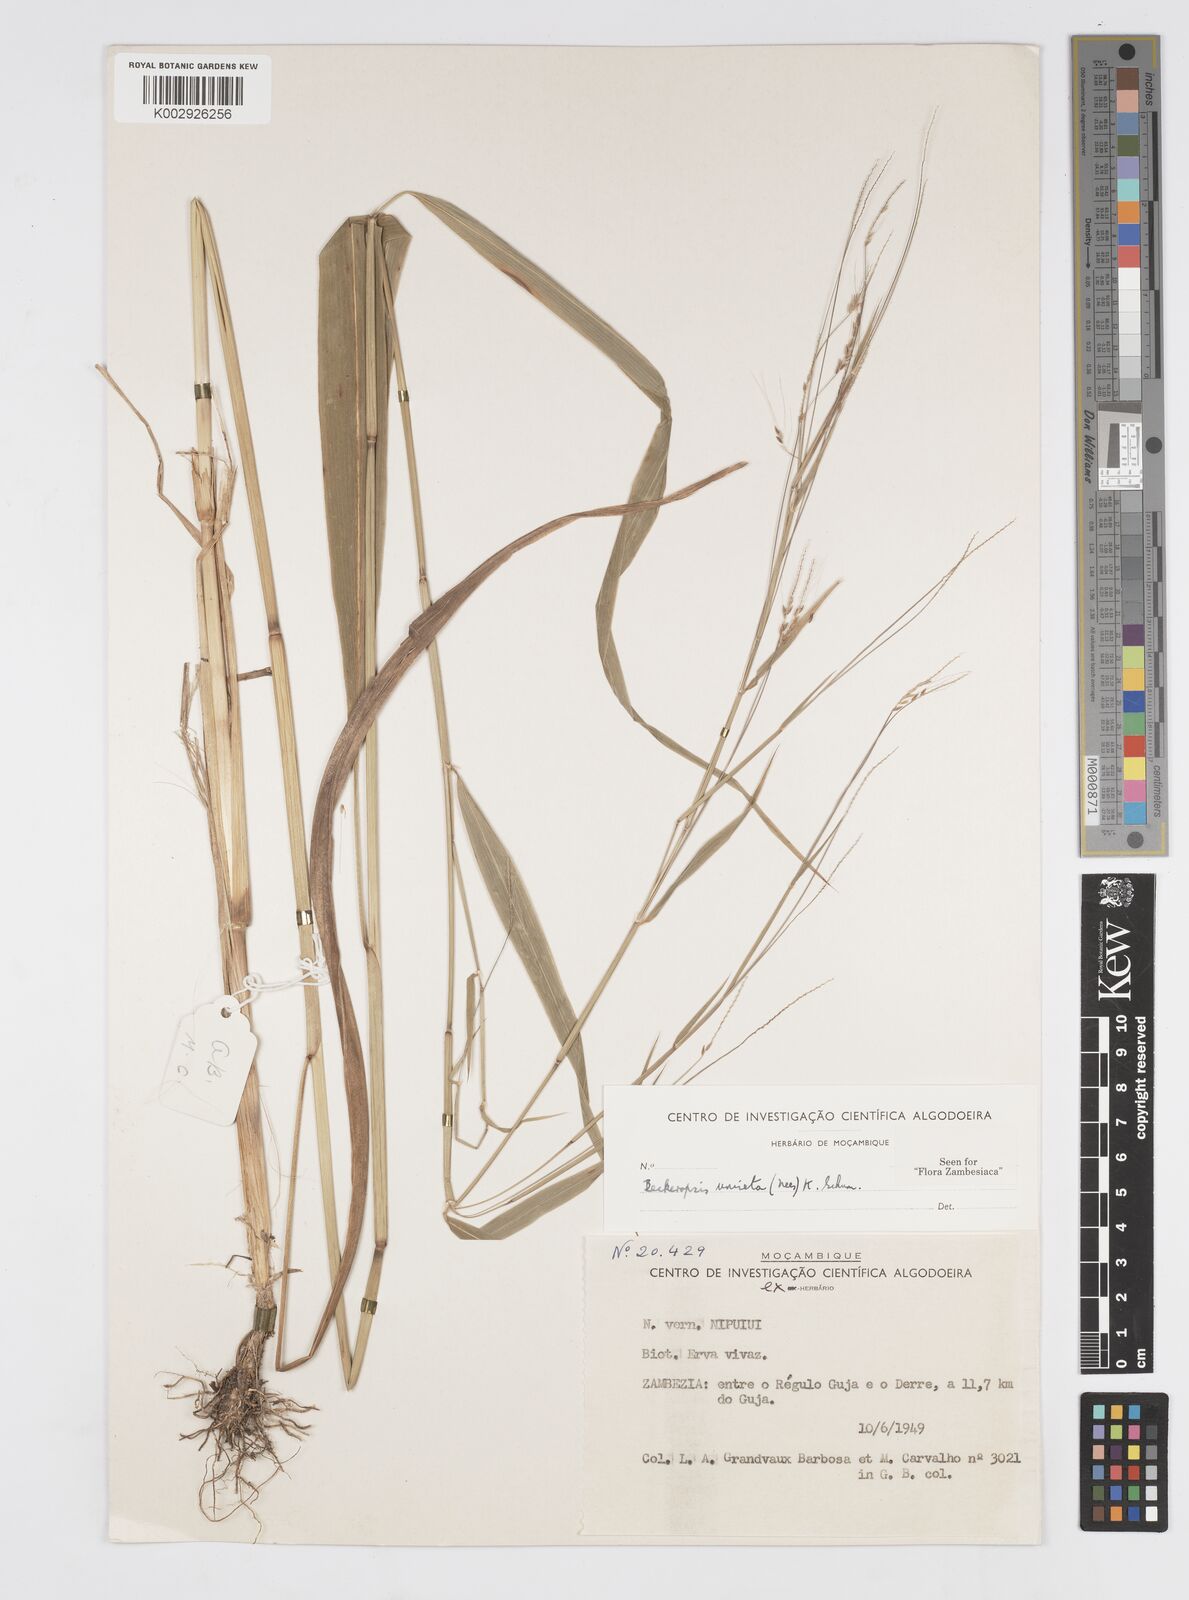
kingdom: Plantae
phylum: Tracheophyta
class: Liliopsida
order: Poales
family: Poaceae
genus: Cenchrus
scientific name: Cenchrus unisetus
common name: Natal grass
